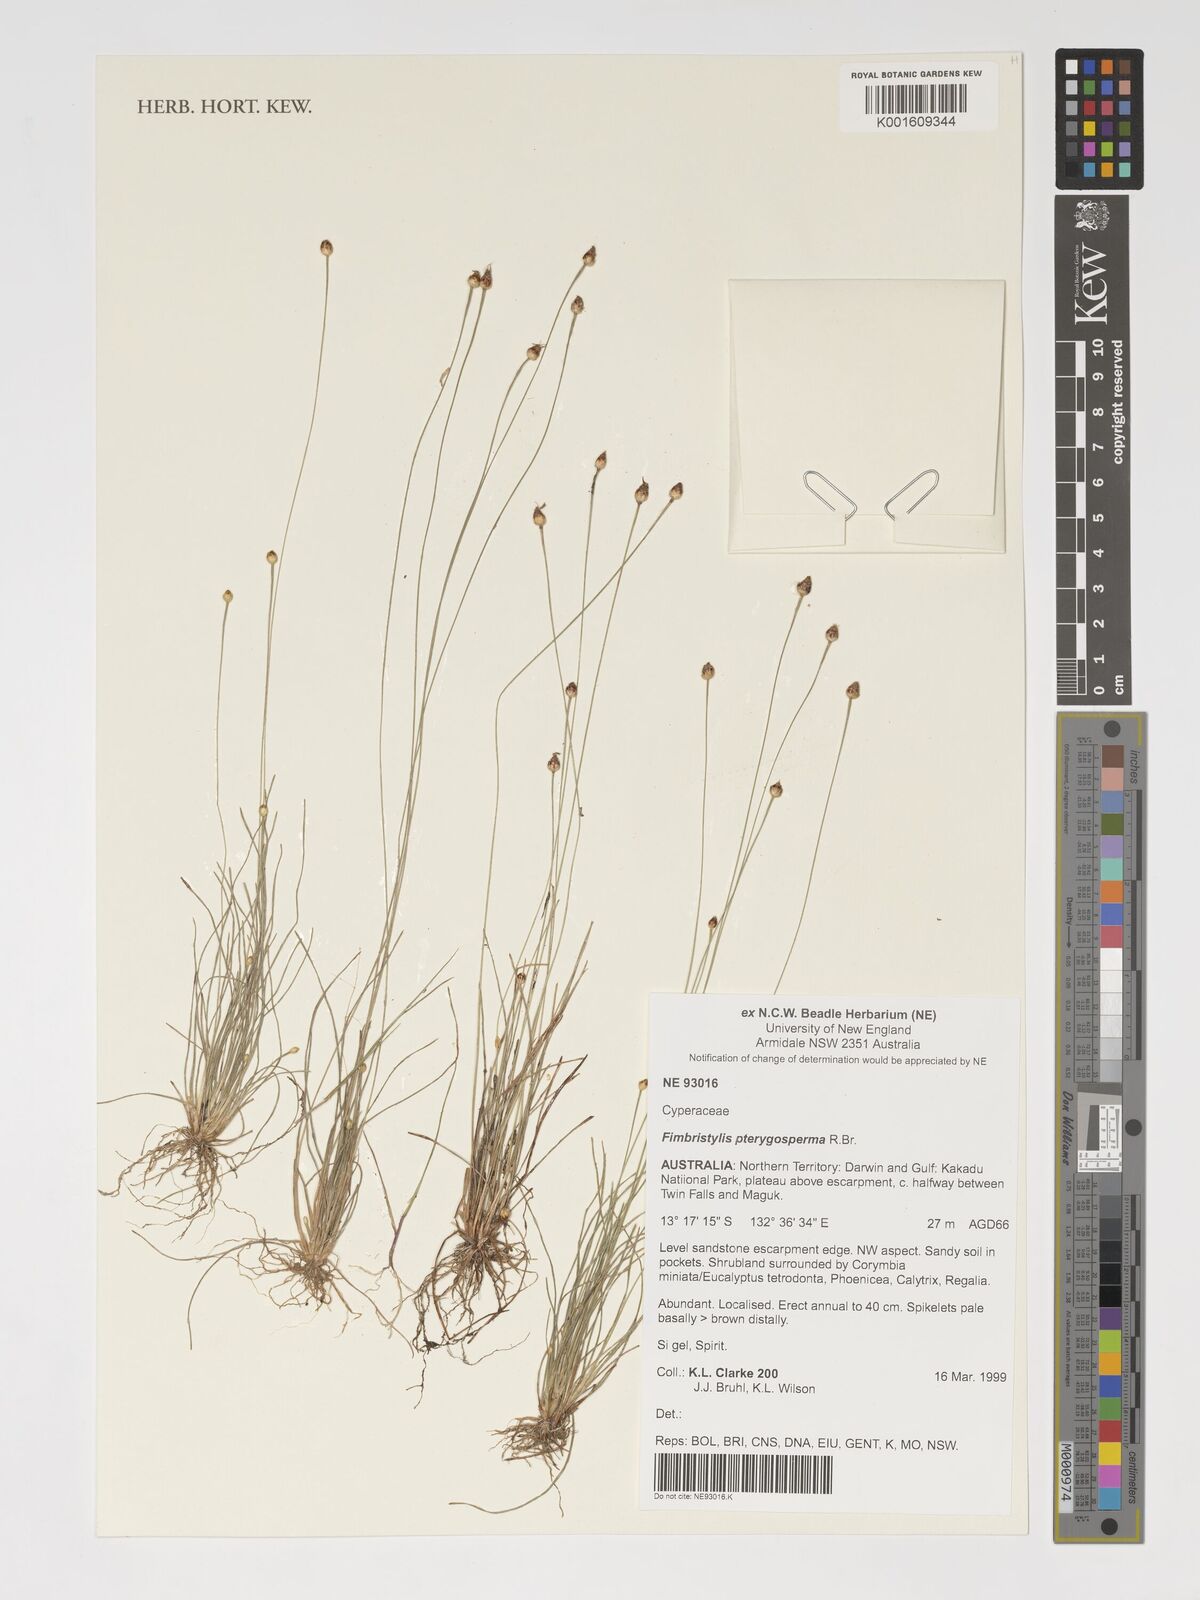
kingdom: Plantae
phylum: Tracheophyta
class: Liliopsida
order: Poales
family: Cyperaceae
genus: Fimbristylis
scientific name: Fimbristylis pterigosperma
